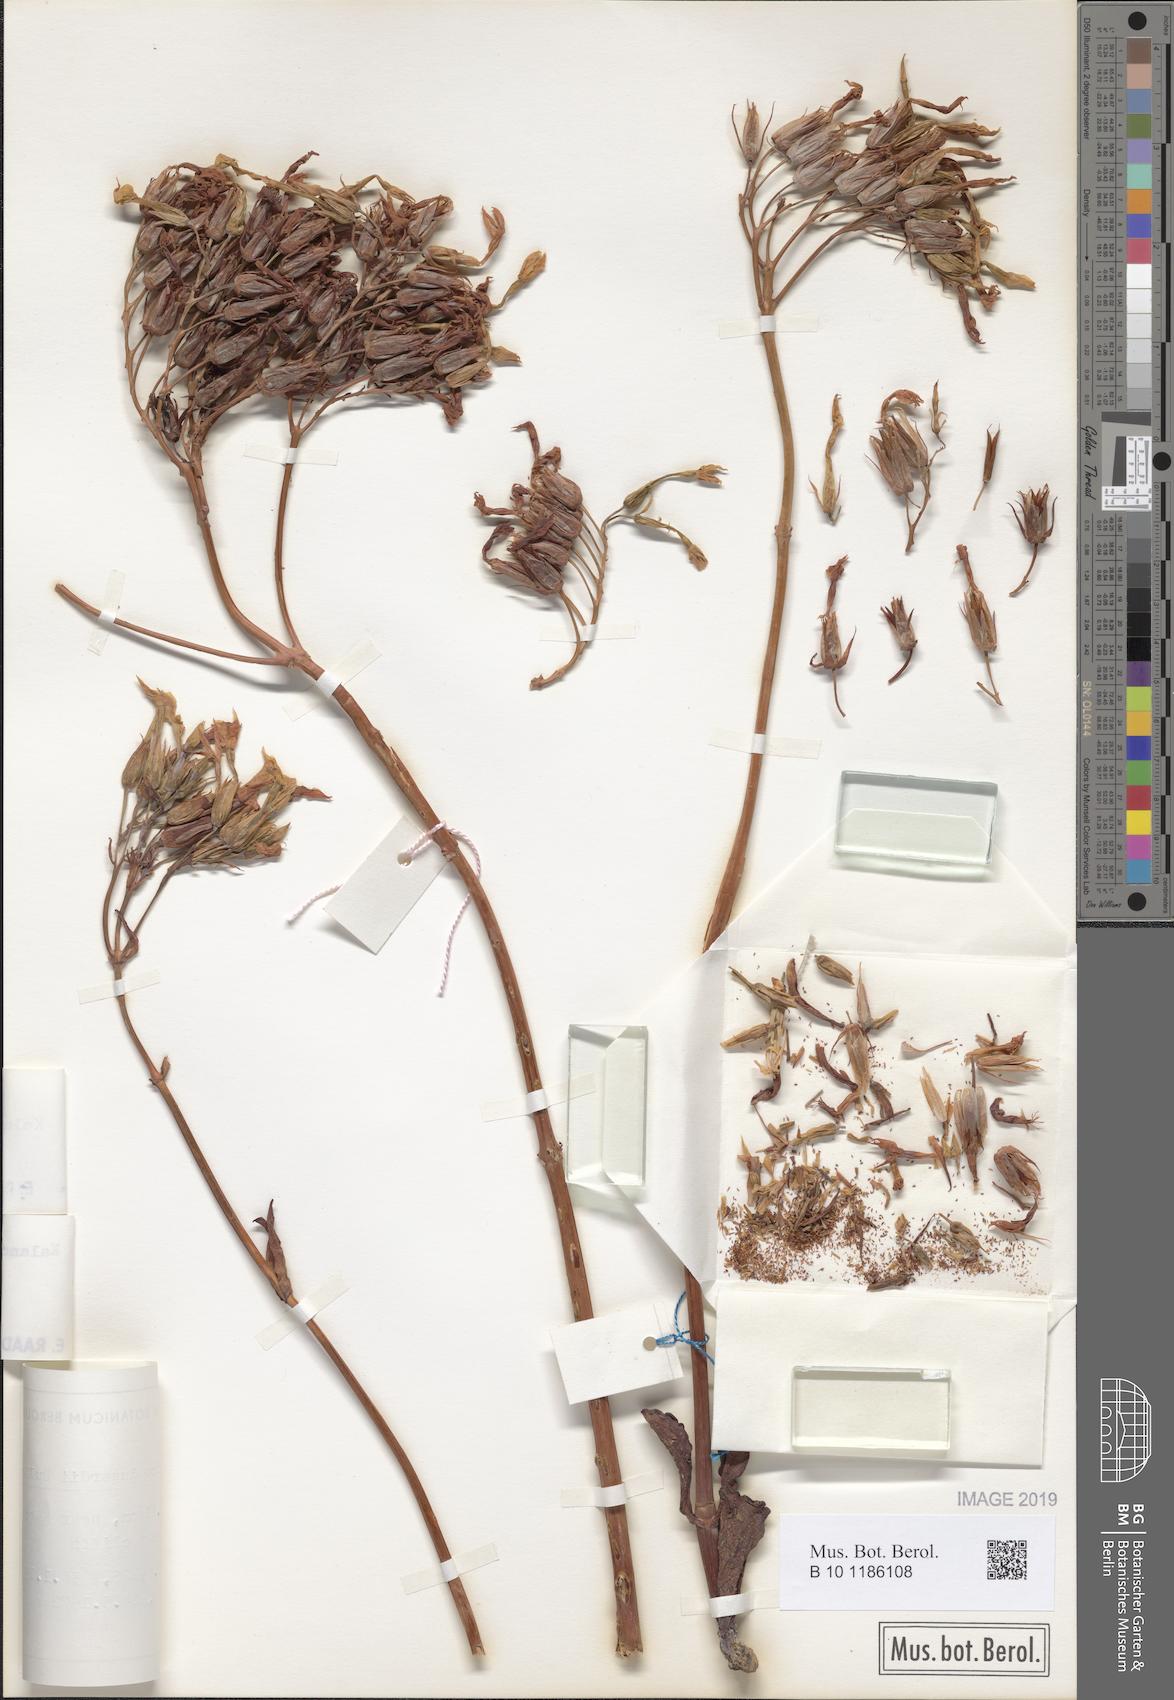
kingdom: Plantae
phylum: Tracheophyta
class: Magnoliopsida
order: Saxifragales
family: Crassulaceae
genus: Kalanchoe
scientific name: Kalanchoe marmorata
